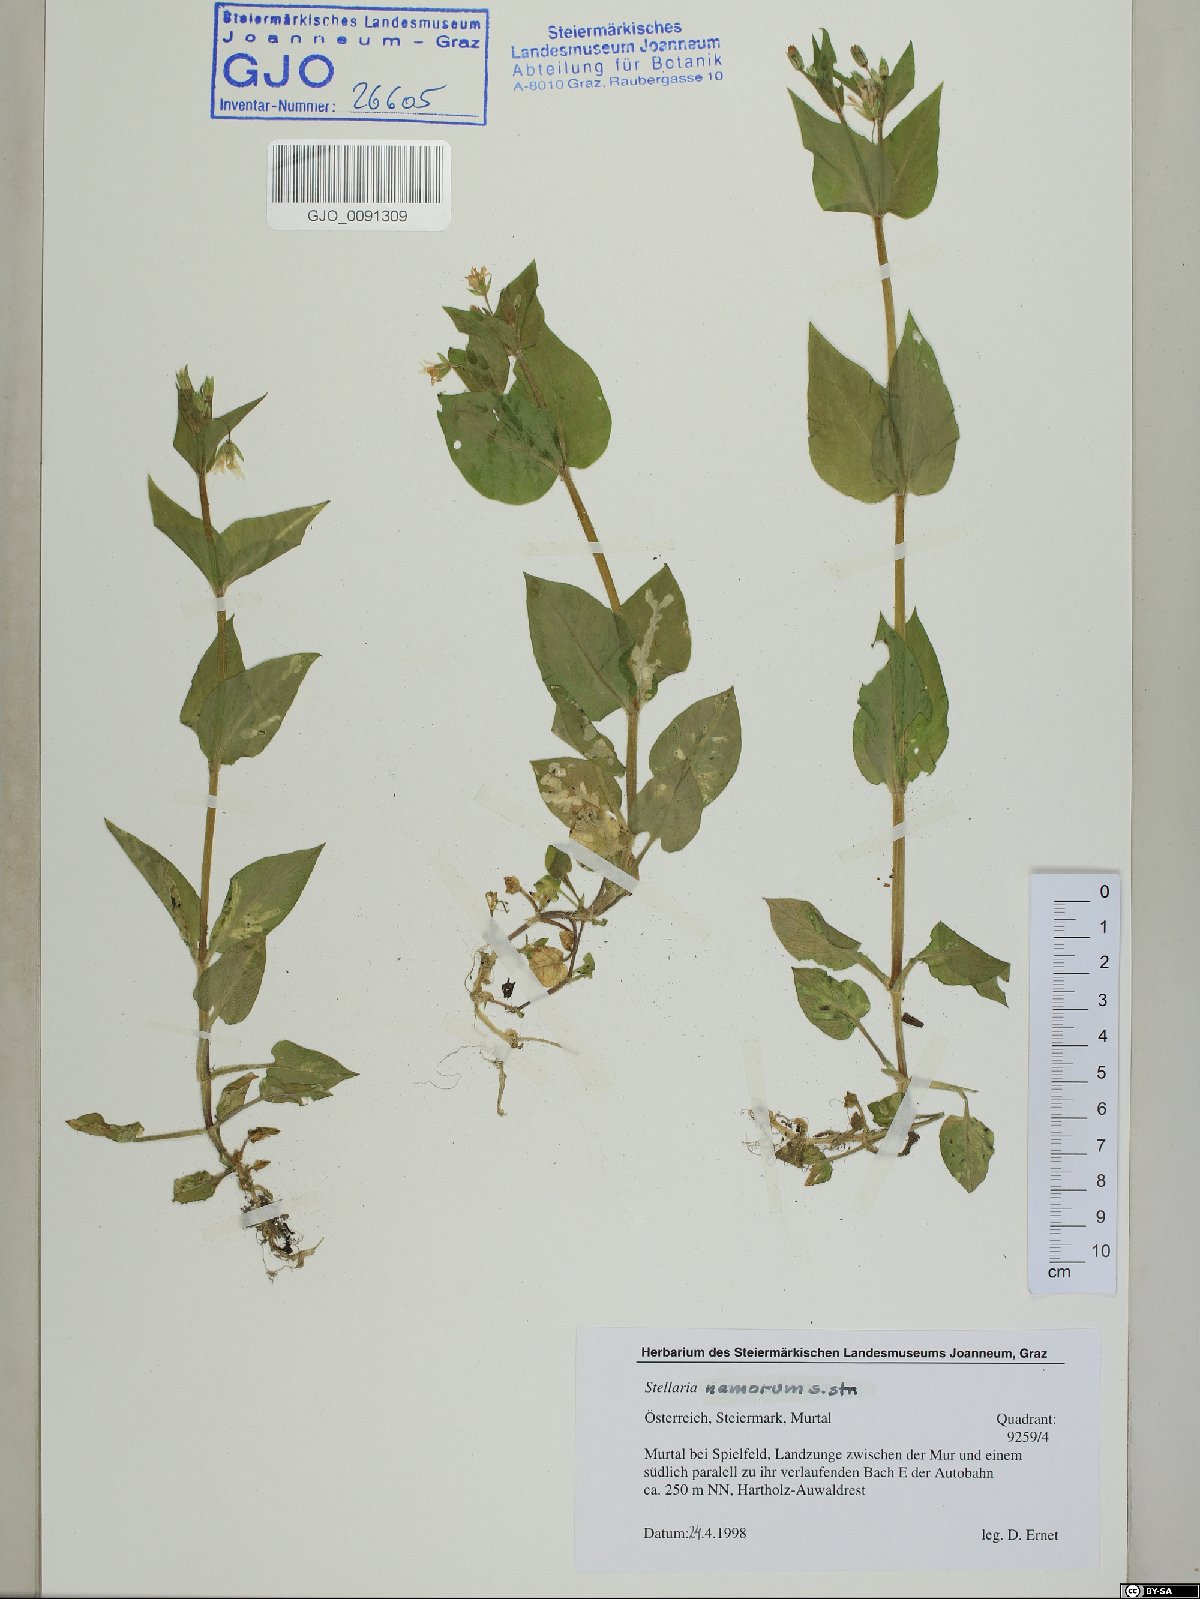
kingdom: Plantae
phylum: Tracheophyta
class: Magnoliopsida
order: Caryophyllales
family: Caryophyllaceae
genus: Stellaria
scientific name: Stellaria nemorum
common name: Wood stitchwort
